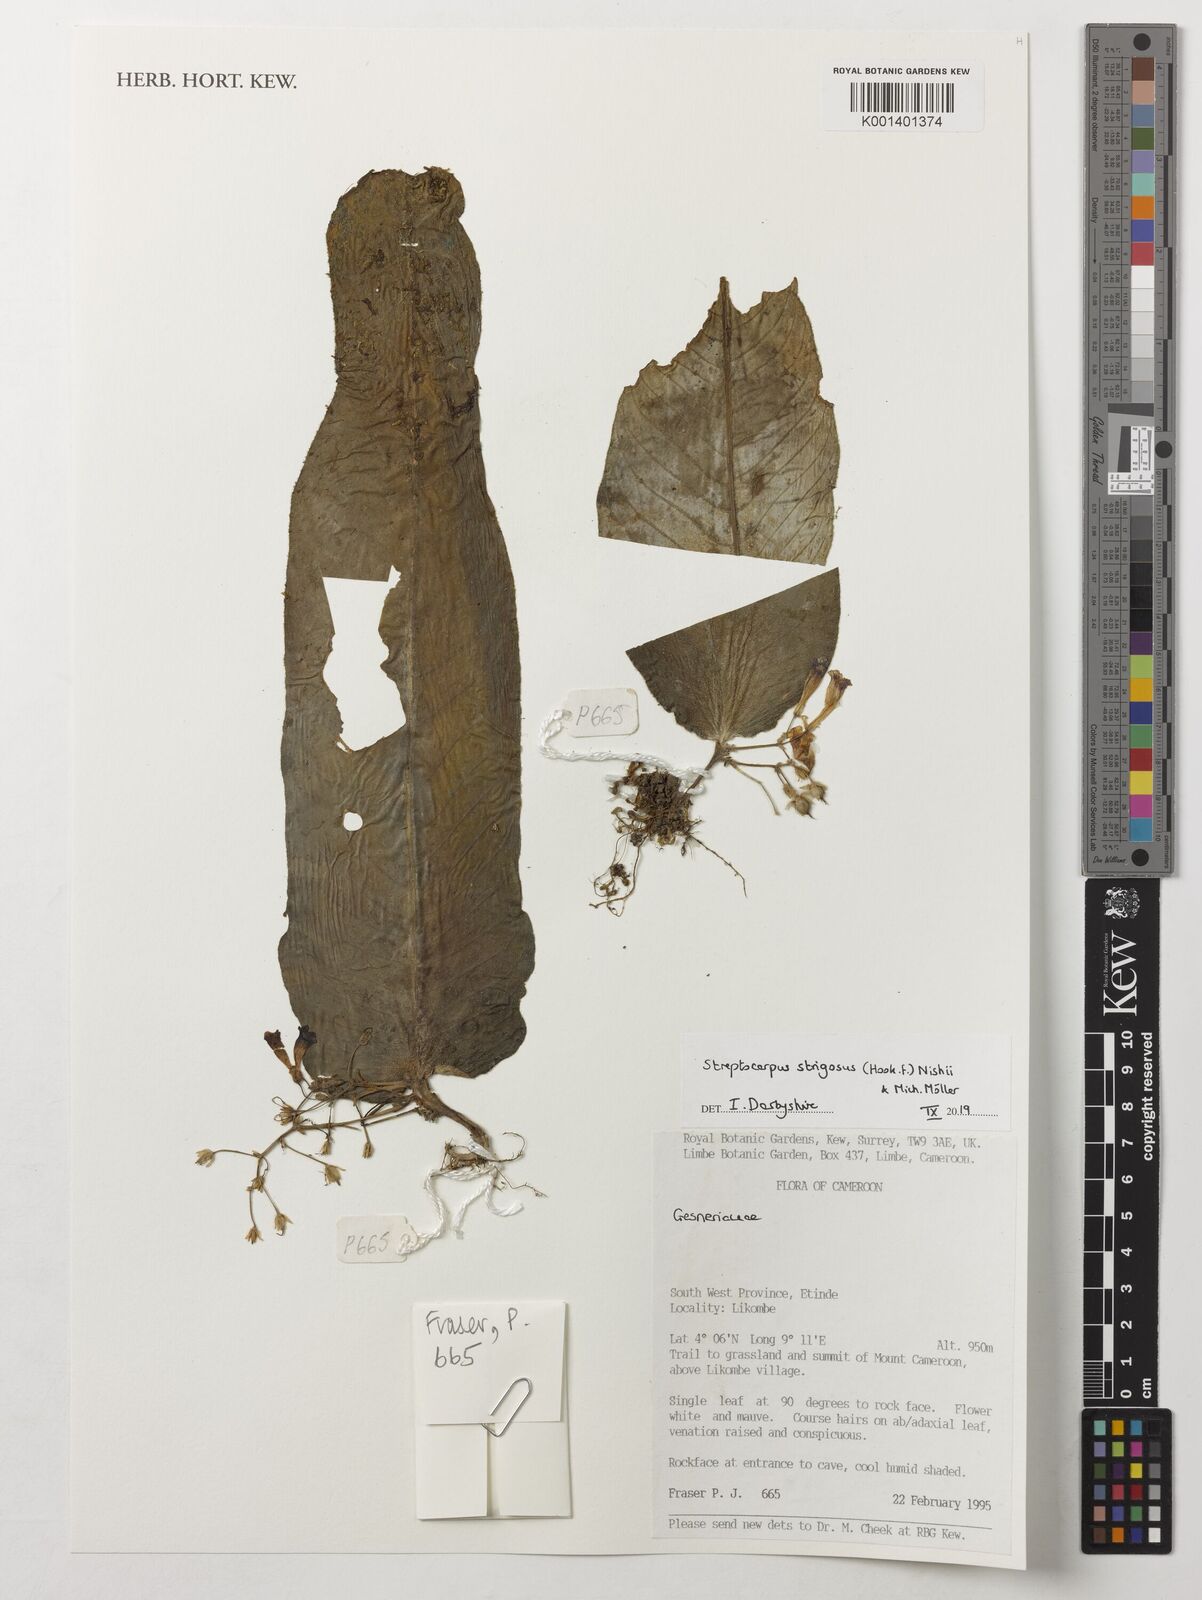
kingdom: Plantae
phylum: Tracheophyta
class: Magnoliopsida
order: Lamiales
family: Gesneriaceae
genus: Streptocarpus
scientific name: Streptocarpus strigosus
